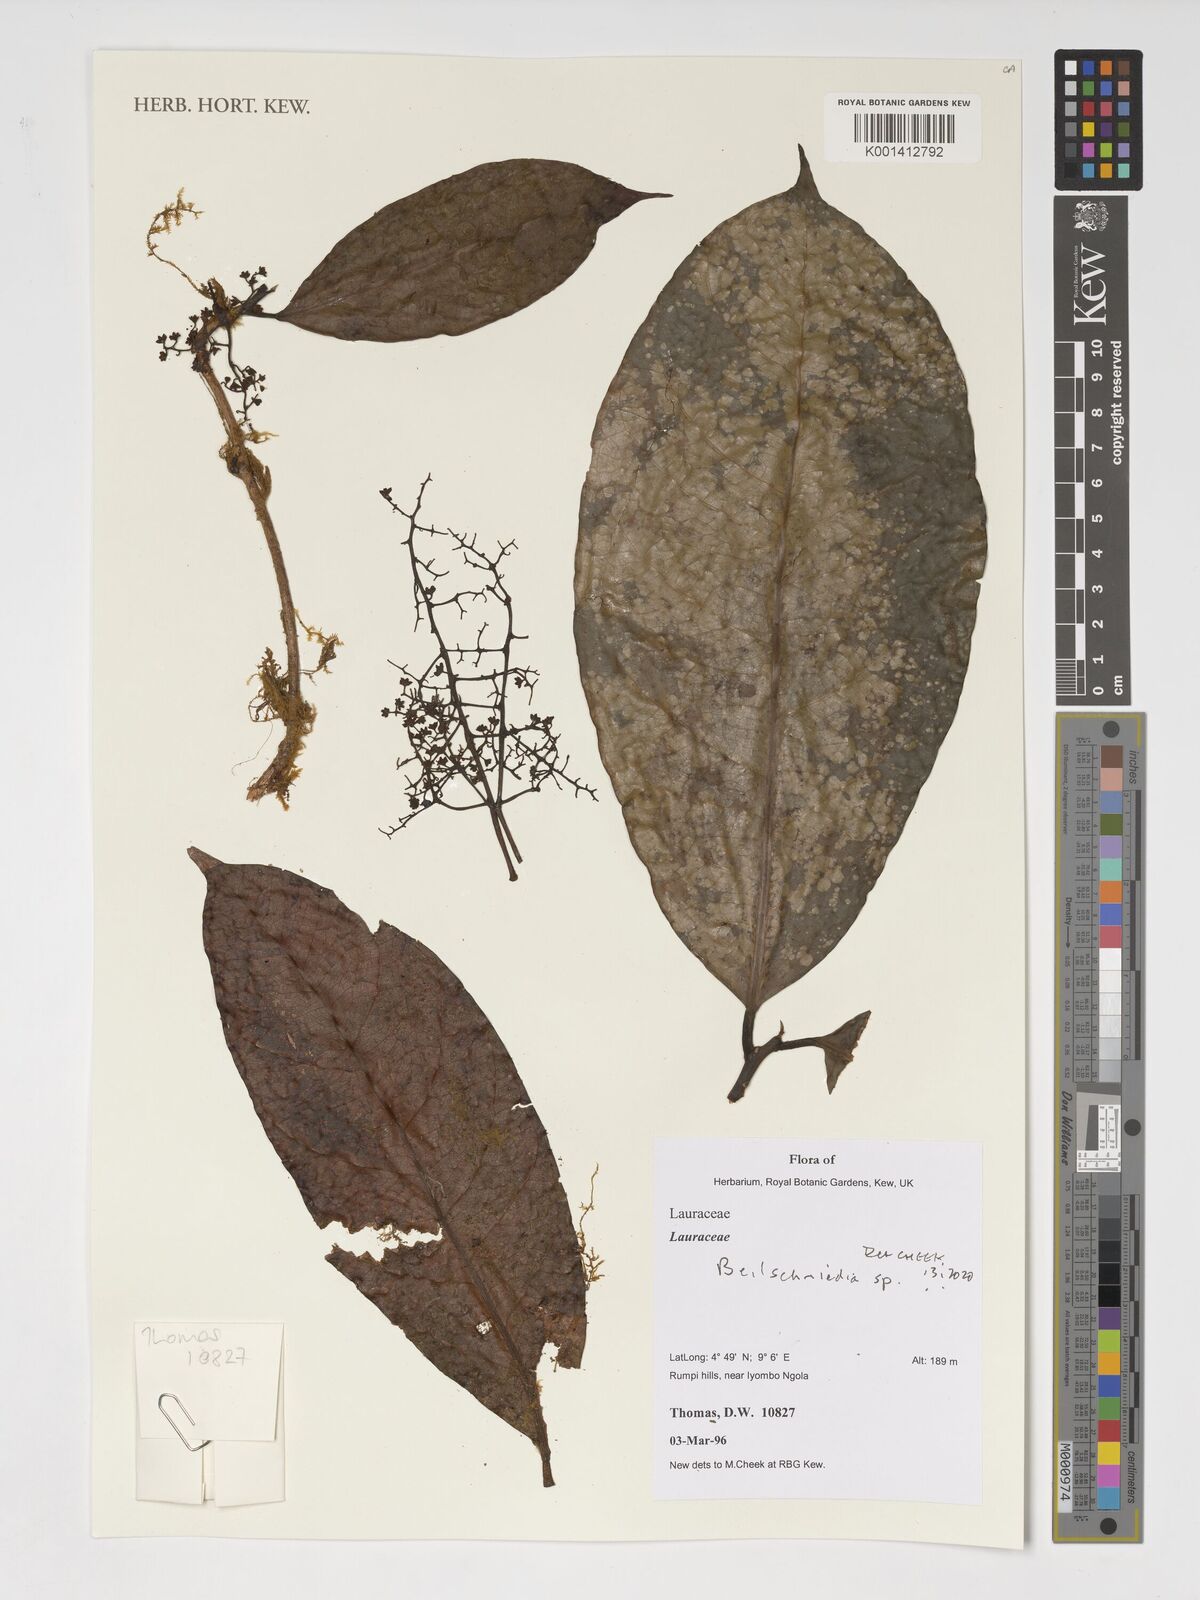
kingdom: Plantae
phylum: Tracheophyta
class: Magnoliopsida
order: Laurales
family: Lauraceae
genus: Beilschmiedia
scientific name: Beilschmiedia
